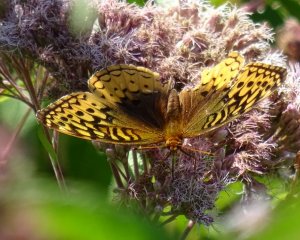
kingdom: Animalia
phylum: Arthropoda
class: Insecta
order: Lepidoptera
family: Nymphalidae
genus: Speyeria
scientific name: Speyeria cybele
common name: Great Spangled Fritillary
